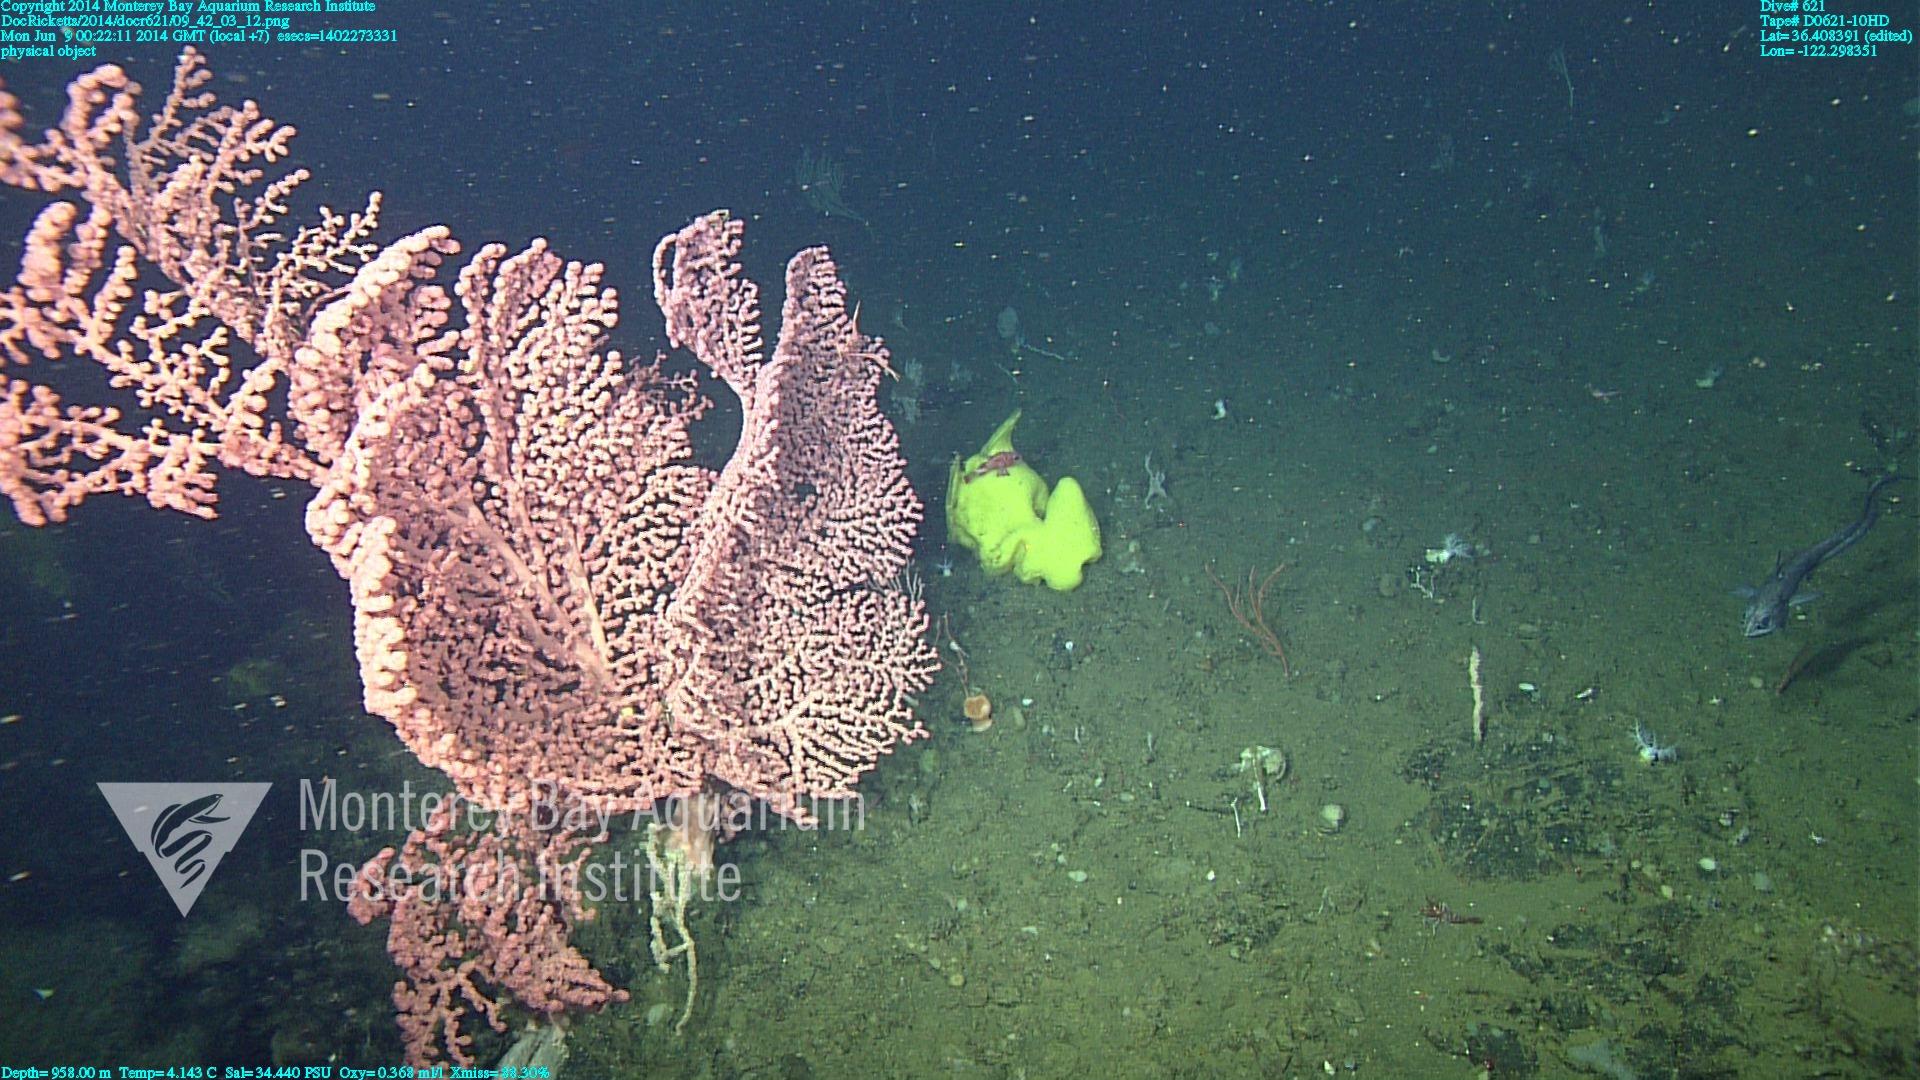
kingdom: Animalia
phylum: Cnidaria
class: Anthozoa
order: Scleralcyonacea
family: Coralliidae
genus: Paragorgia
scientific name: Paragorgia arborea
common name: Bubble gum coral
